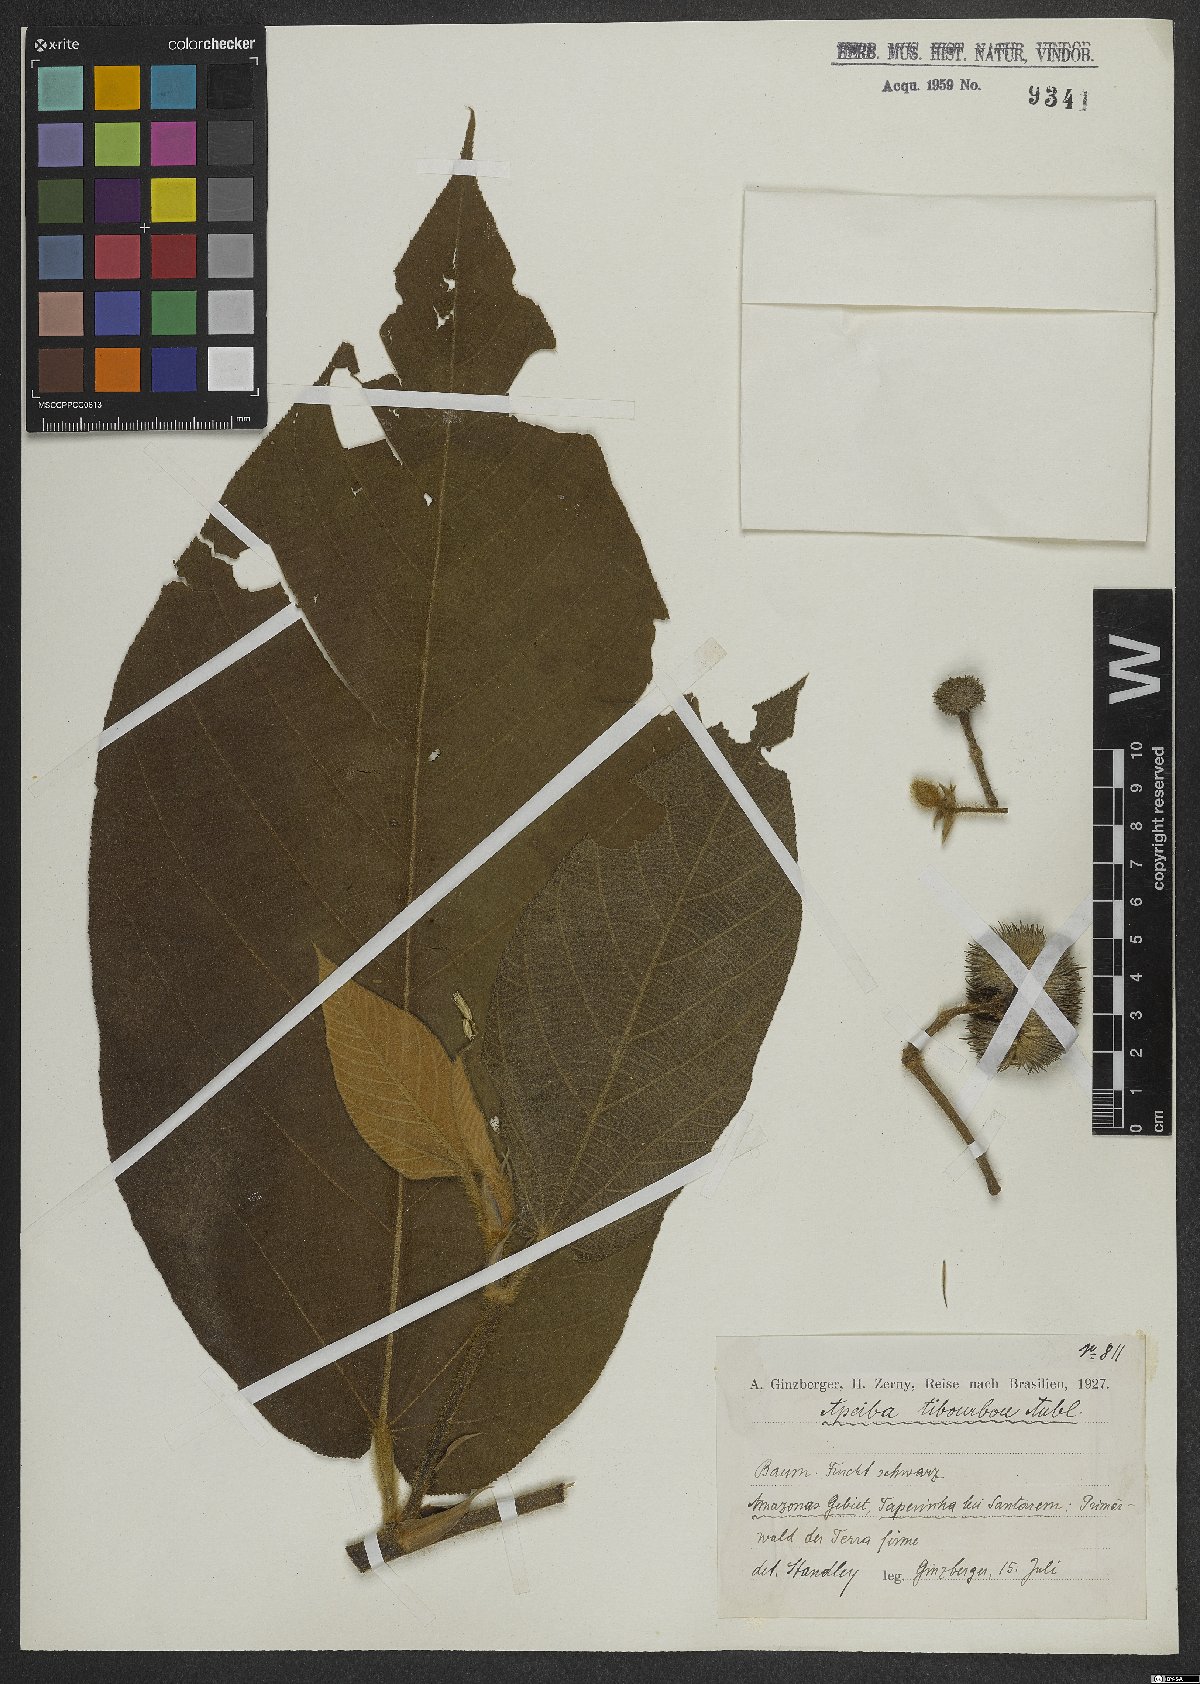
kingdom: Plantae
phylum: Tracheophyta
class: Magnoliopsida
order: Malvales
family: Malvaceae
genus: Apeiba
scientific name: Apeiba tibourbou
